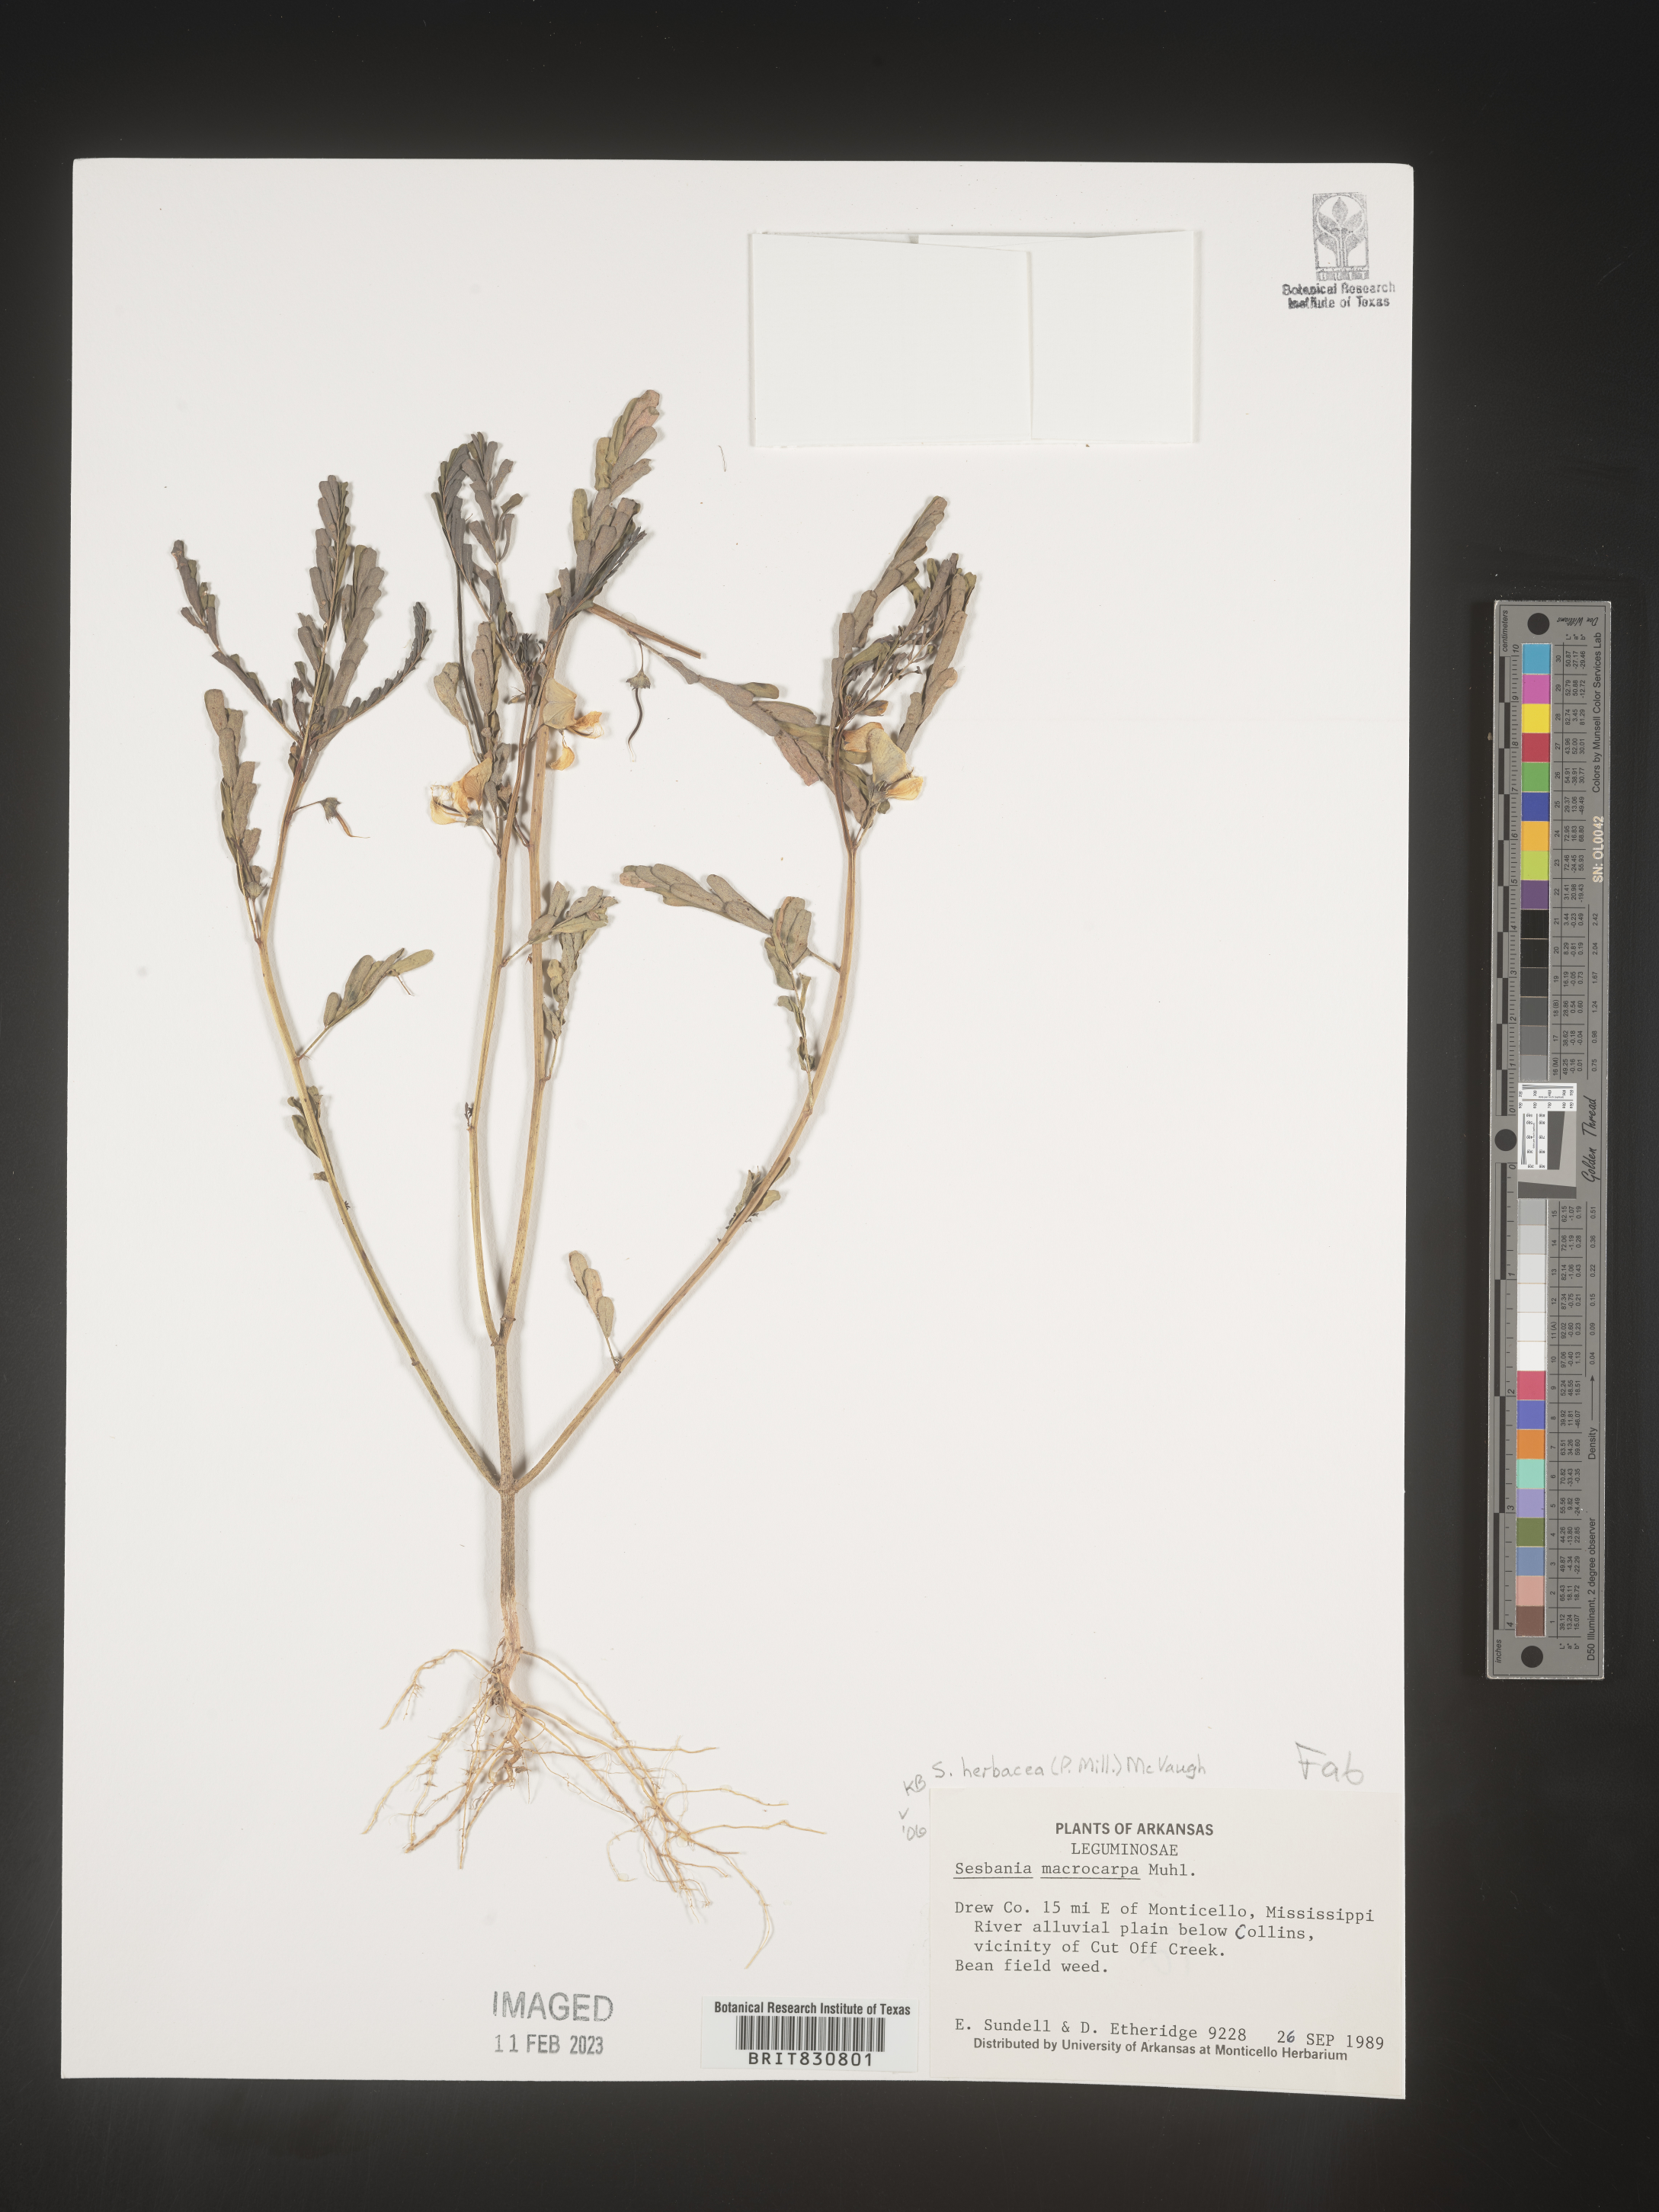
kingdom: Plantae
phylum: Tracheophyta
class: Magnoliopsida
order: Fabales
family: Fabaceae
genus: Sesbania
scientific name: Sesbania herbacea
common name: Bigpod sesbania
